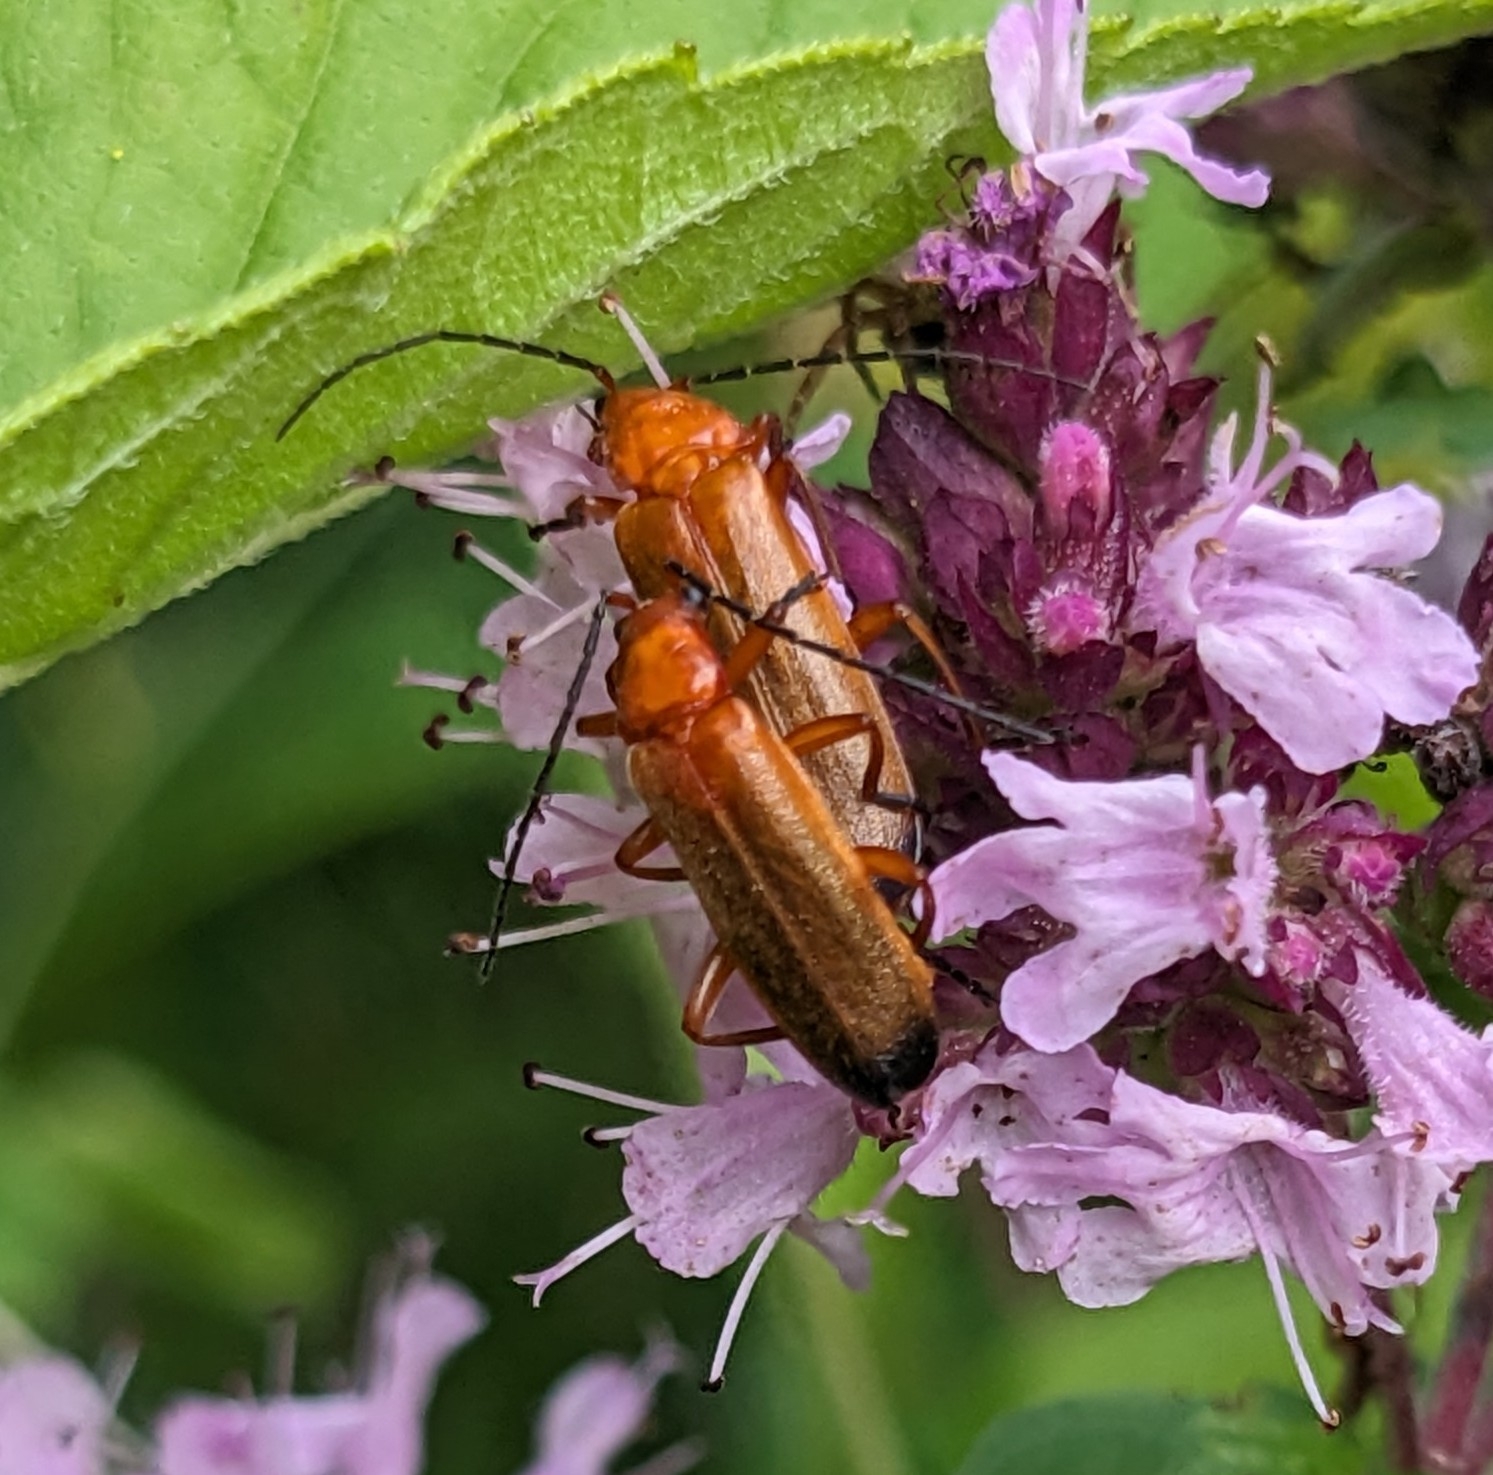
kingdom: Animalia
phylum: Arthropoda
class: Insecta
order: Coleoptera
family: Cantharidae
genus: Rhagonycha
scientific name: Rhagonycha fulva
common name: Præstebille
